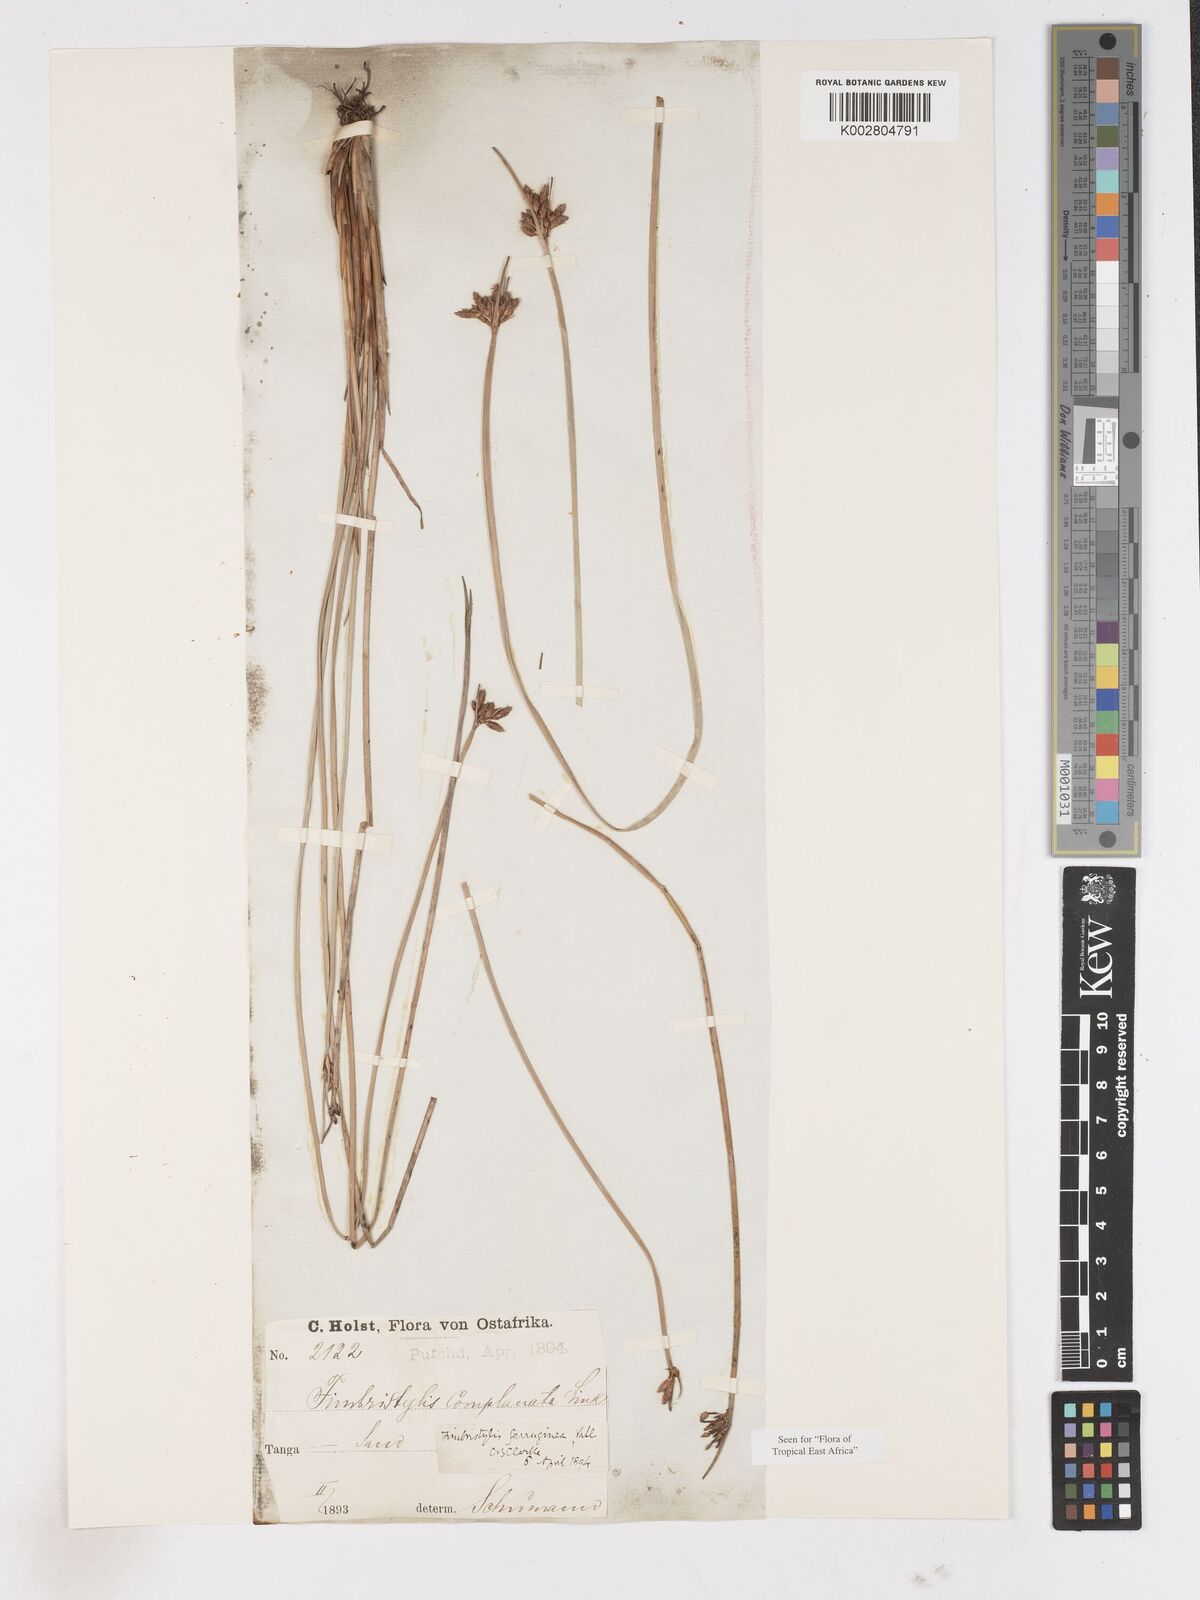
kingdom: Plantae
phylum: Tracheophyta
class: Liliopsida
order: Poales
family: Cyperaceae
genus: Fimbristylis
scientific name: Fimbristylis ferruginea
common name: West indian fimbry
